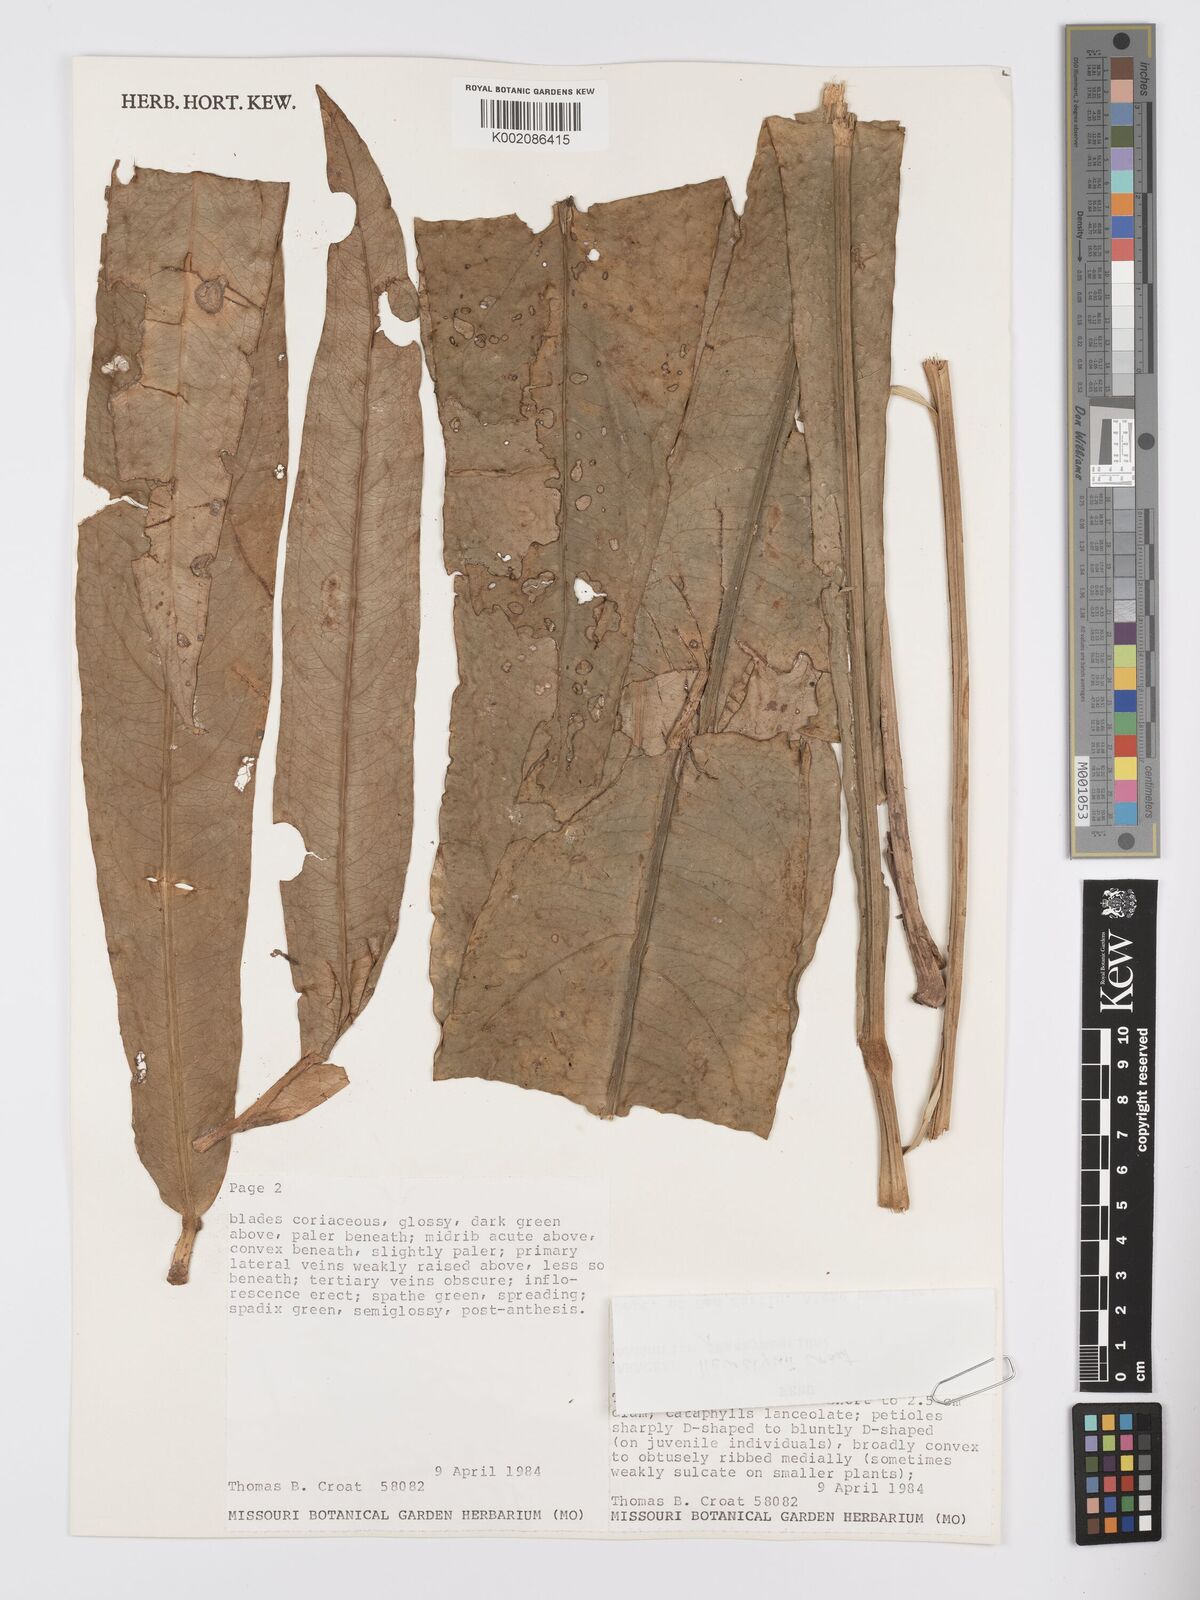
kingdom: Plantae
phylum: Tracheophyta
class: Liliopsida
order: Alismatales
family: Araceae
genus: Anthurium
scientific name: Anthurium llewellynii
